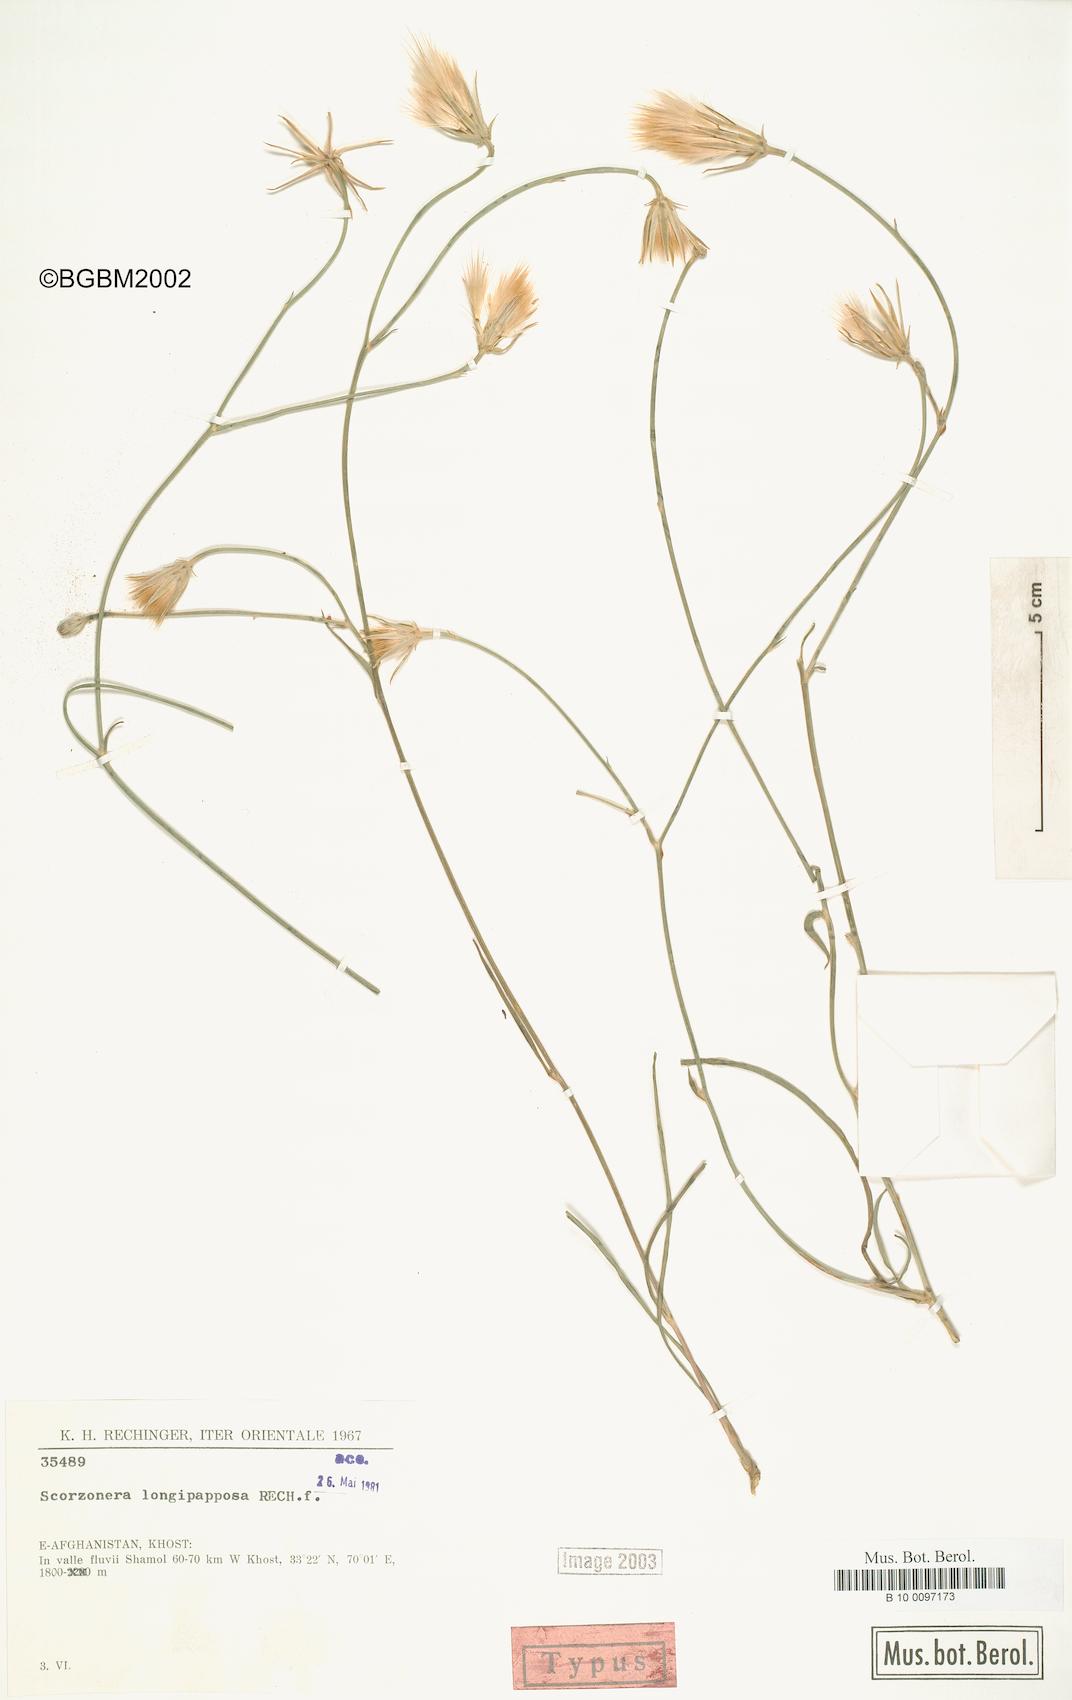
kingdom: Plantae
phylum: Tracheophyta
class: Magnoliopsida
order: Asterales
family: Asteraceae
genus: Ramaliella
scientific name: Ramaliella longipapposa
